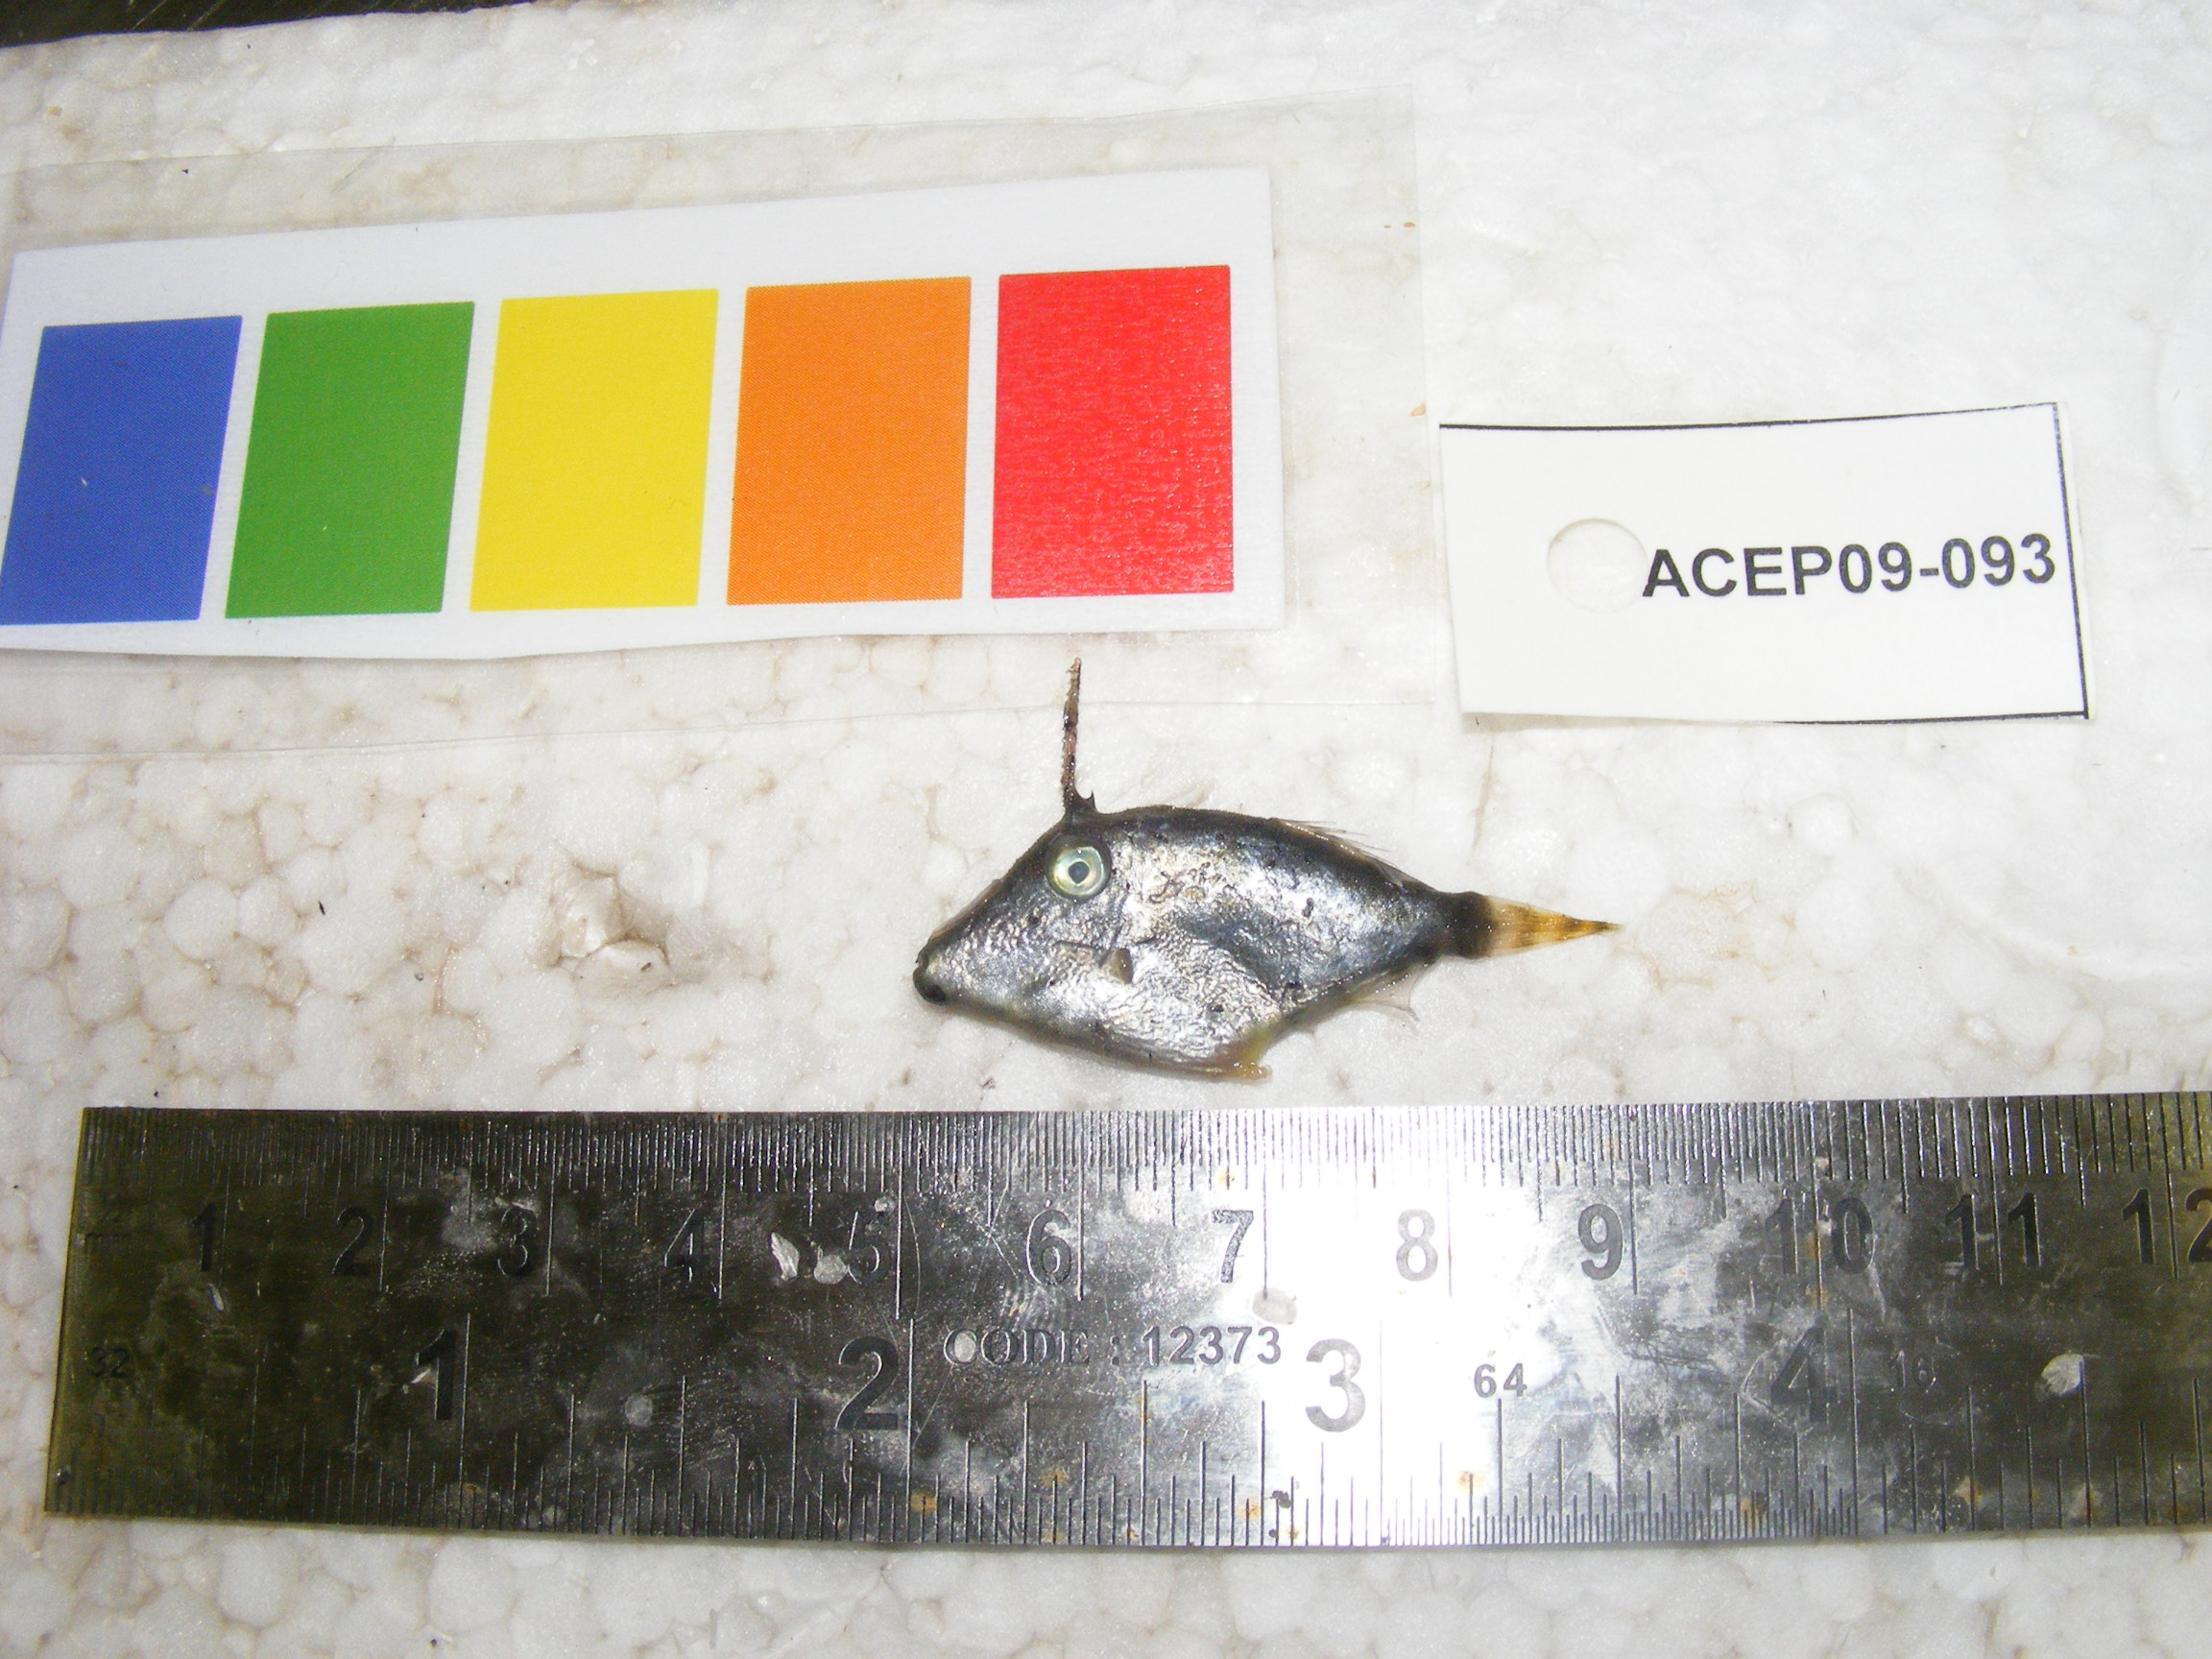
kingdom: Animalia
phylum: Chordata
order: Tetraodontiformes
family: Monacanthidae
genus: Pervagor
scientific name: Pervagor melanocephalus
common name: Black-headed leatherjacket
